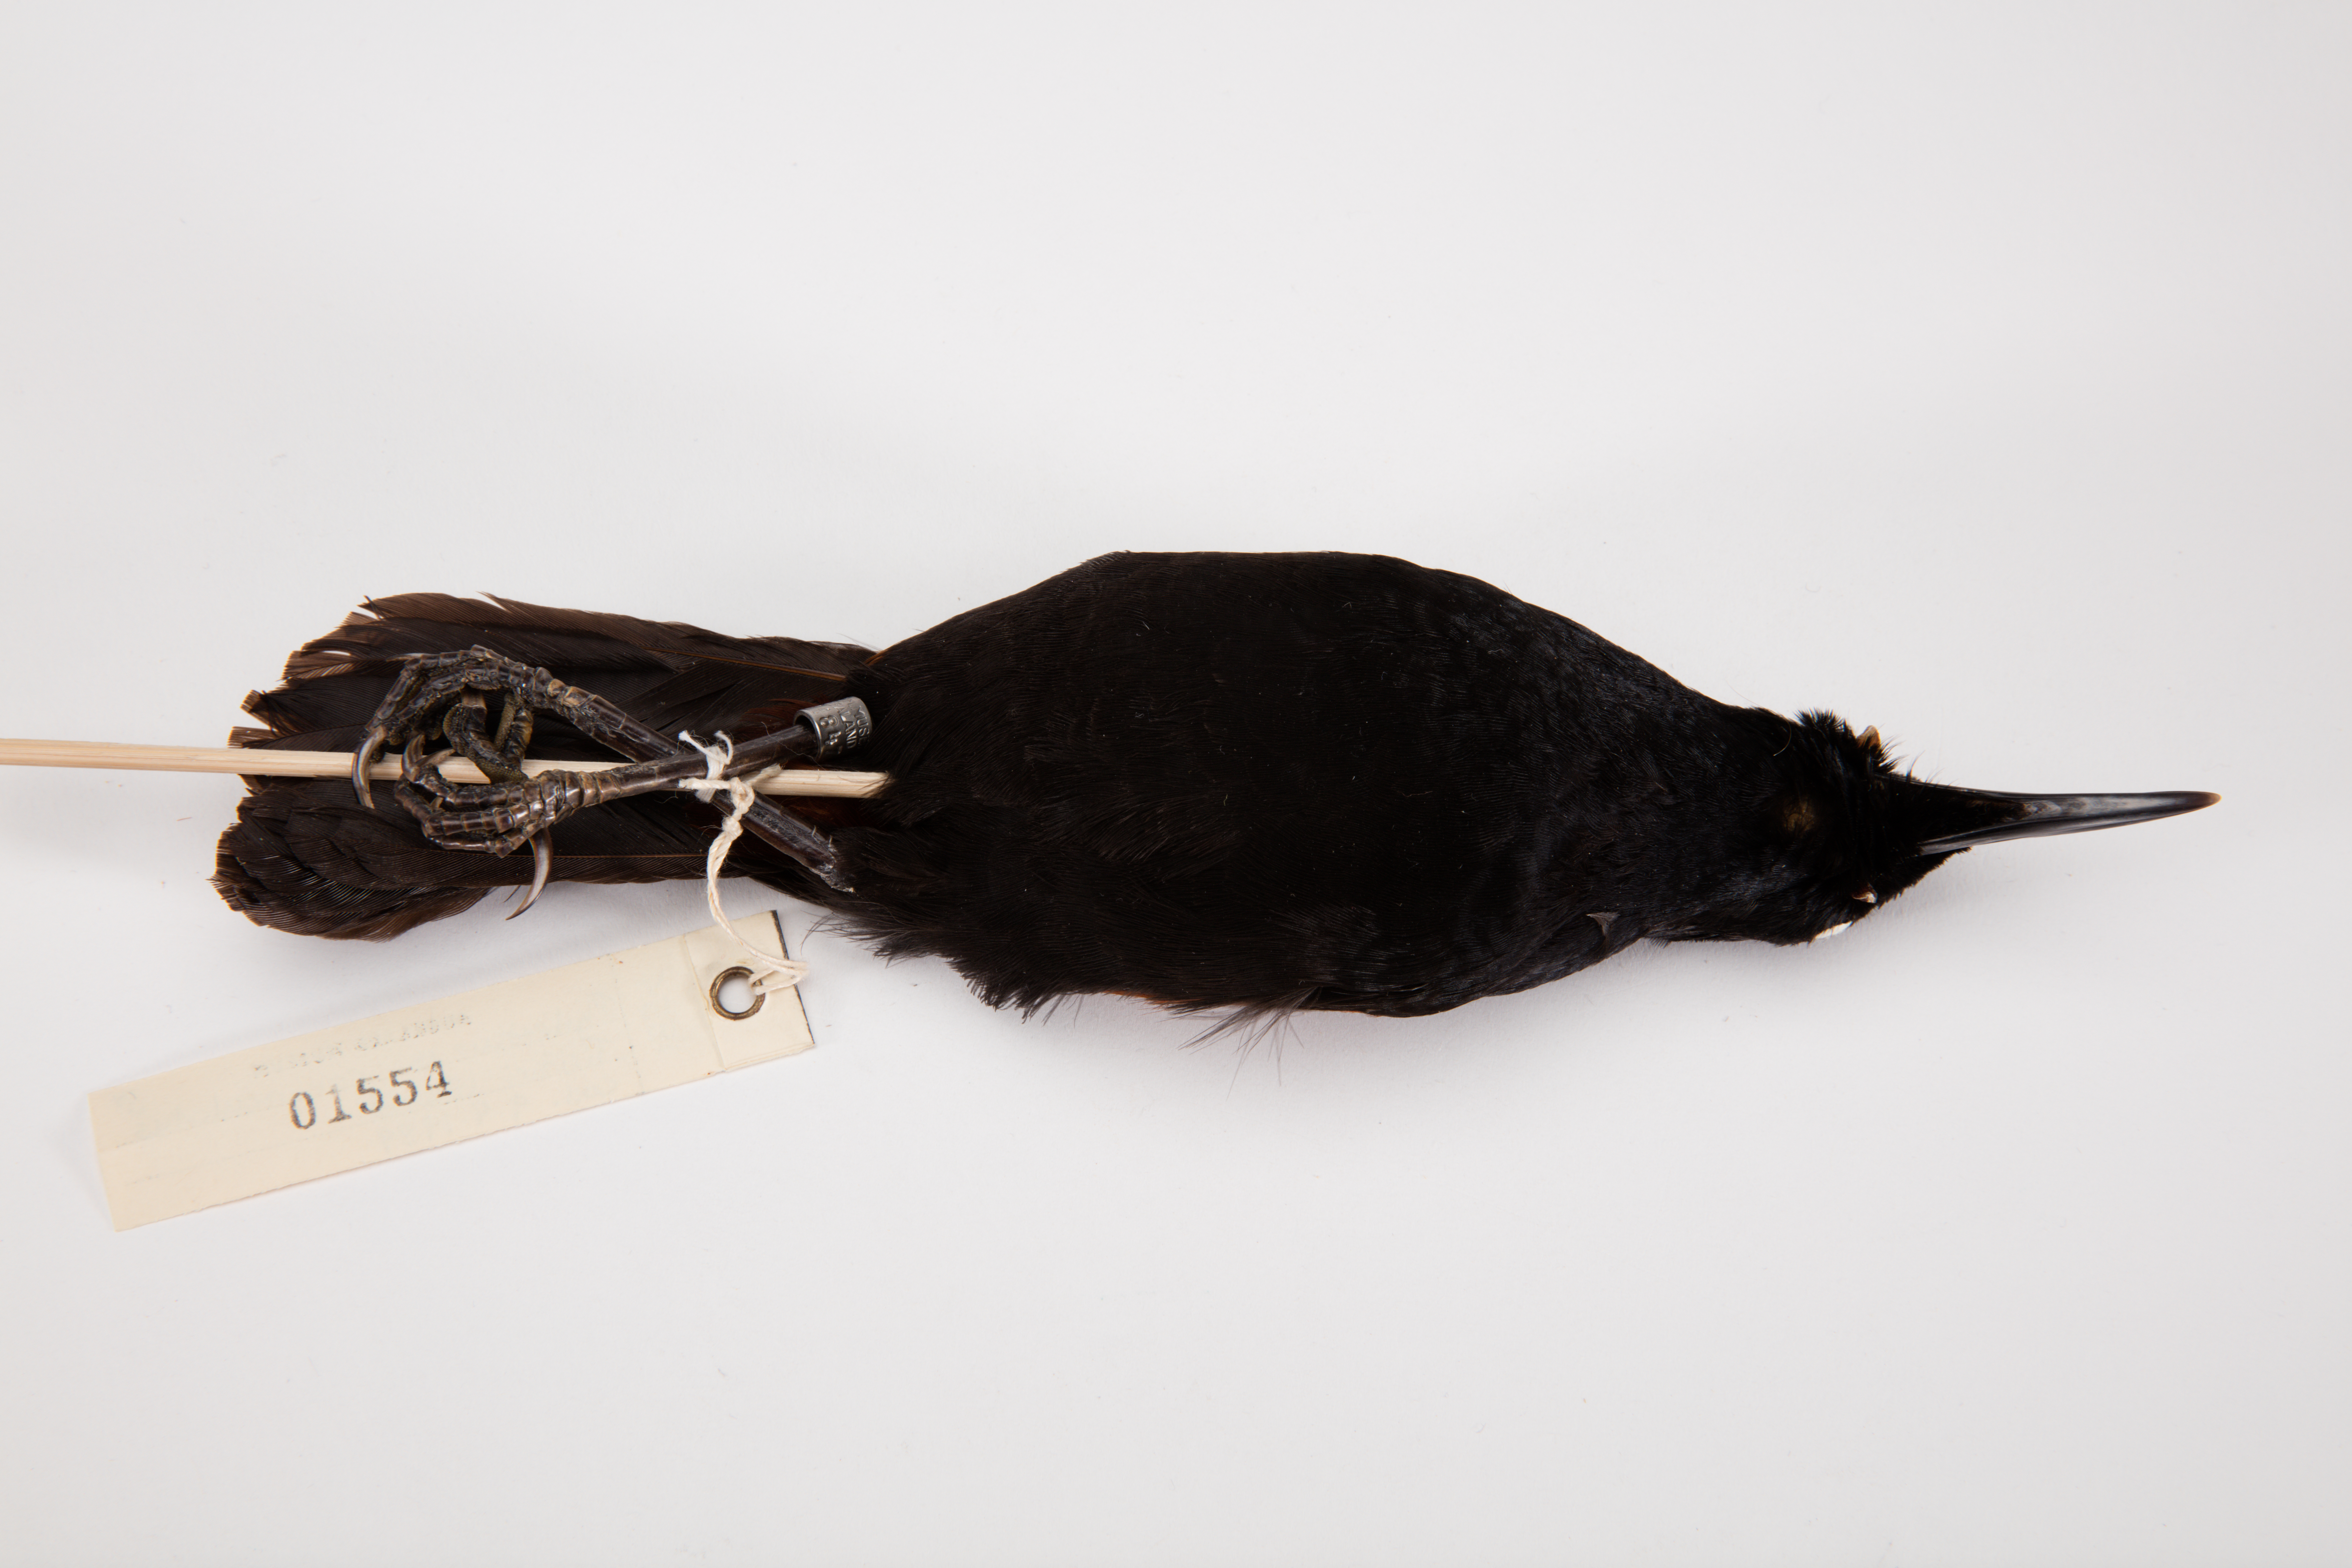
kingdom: Animalia
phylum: Chordata
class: Aves
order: Passeriformes
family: Callaeatidae
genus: Philesturnus
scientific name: Philesturnus carunculatus
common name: South island saddleback
